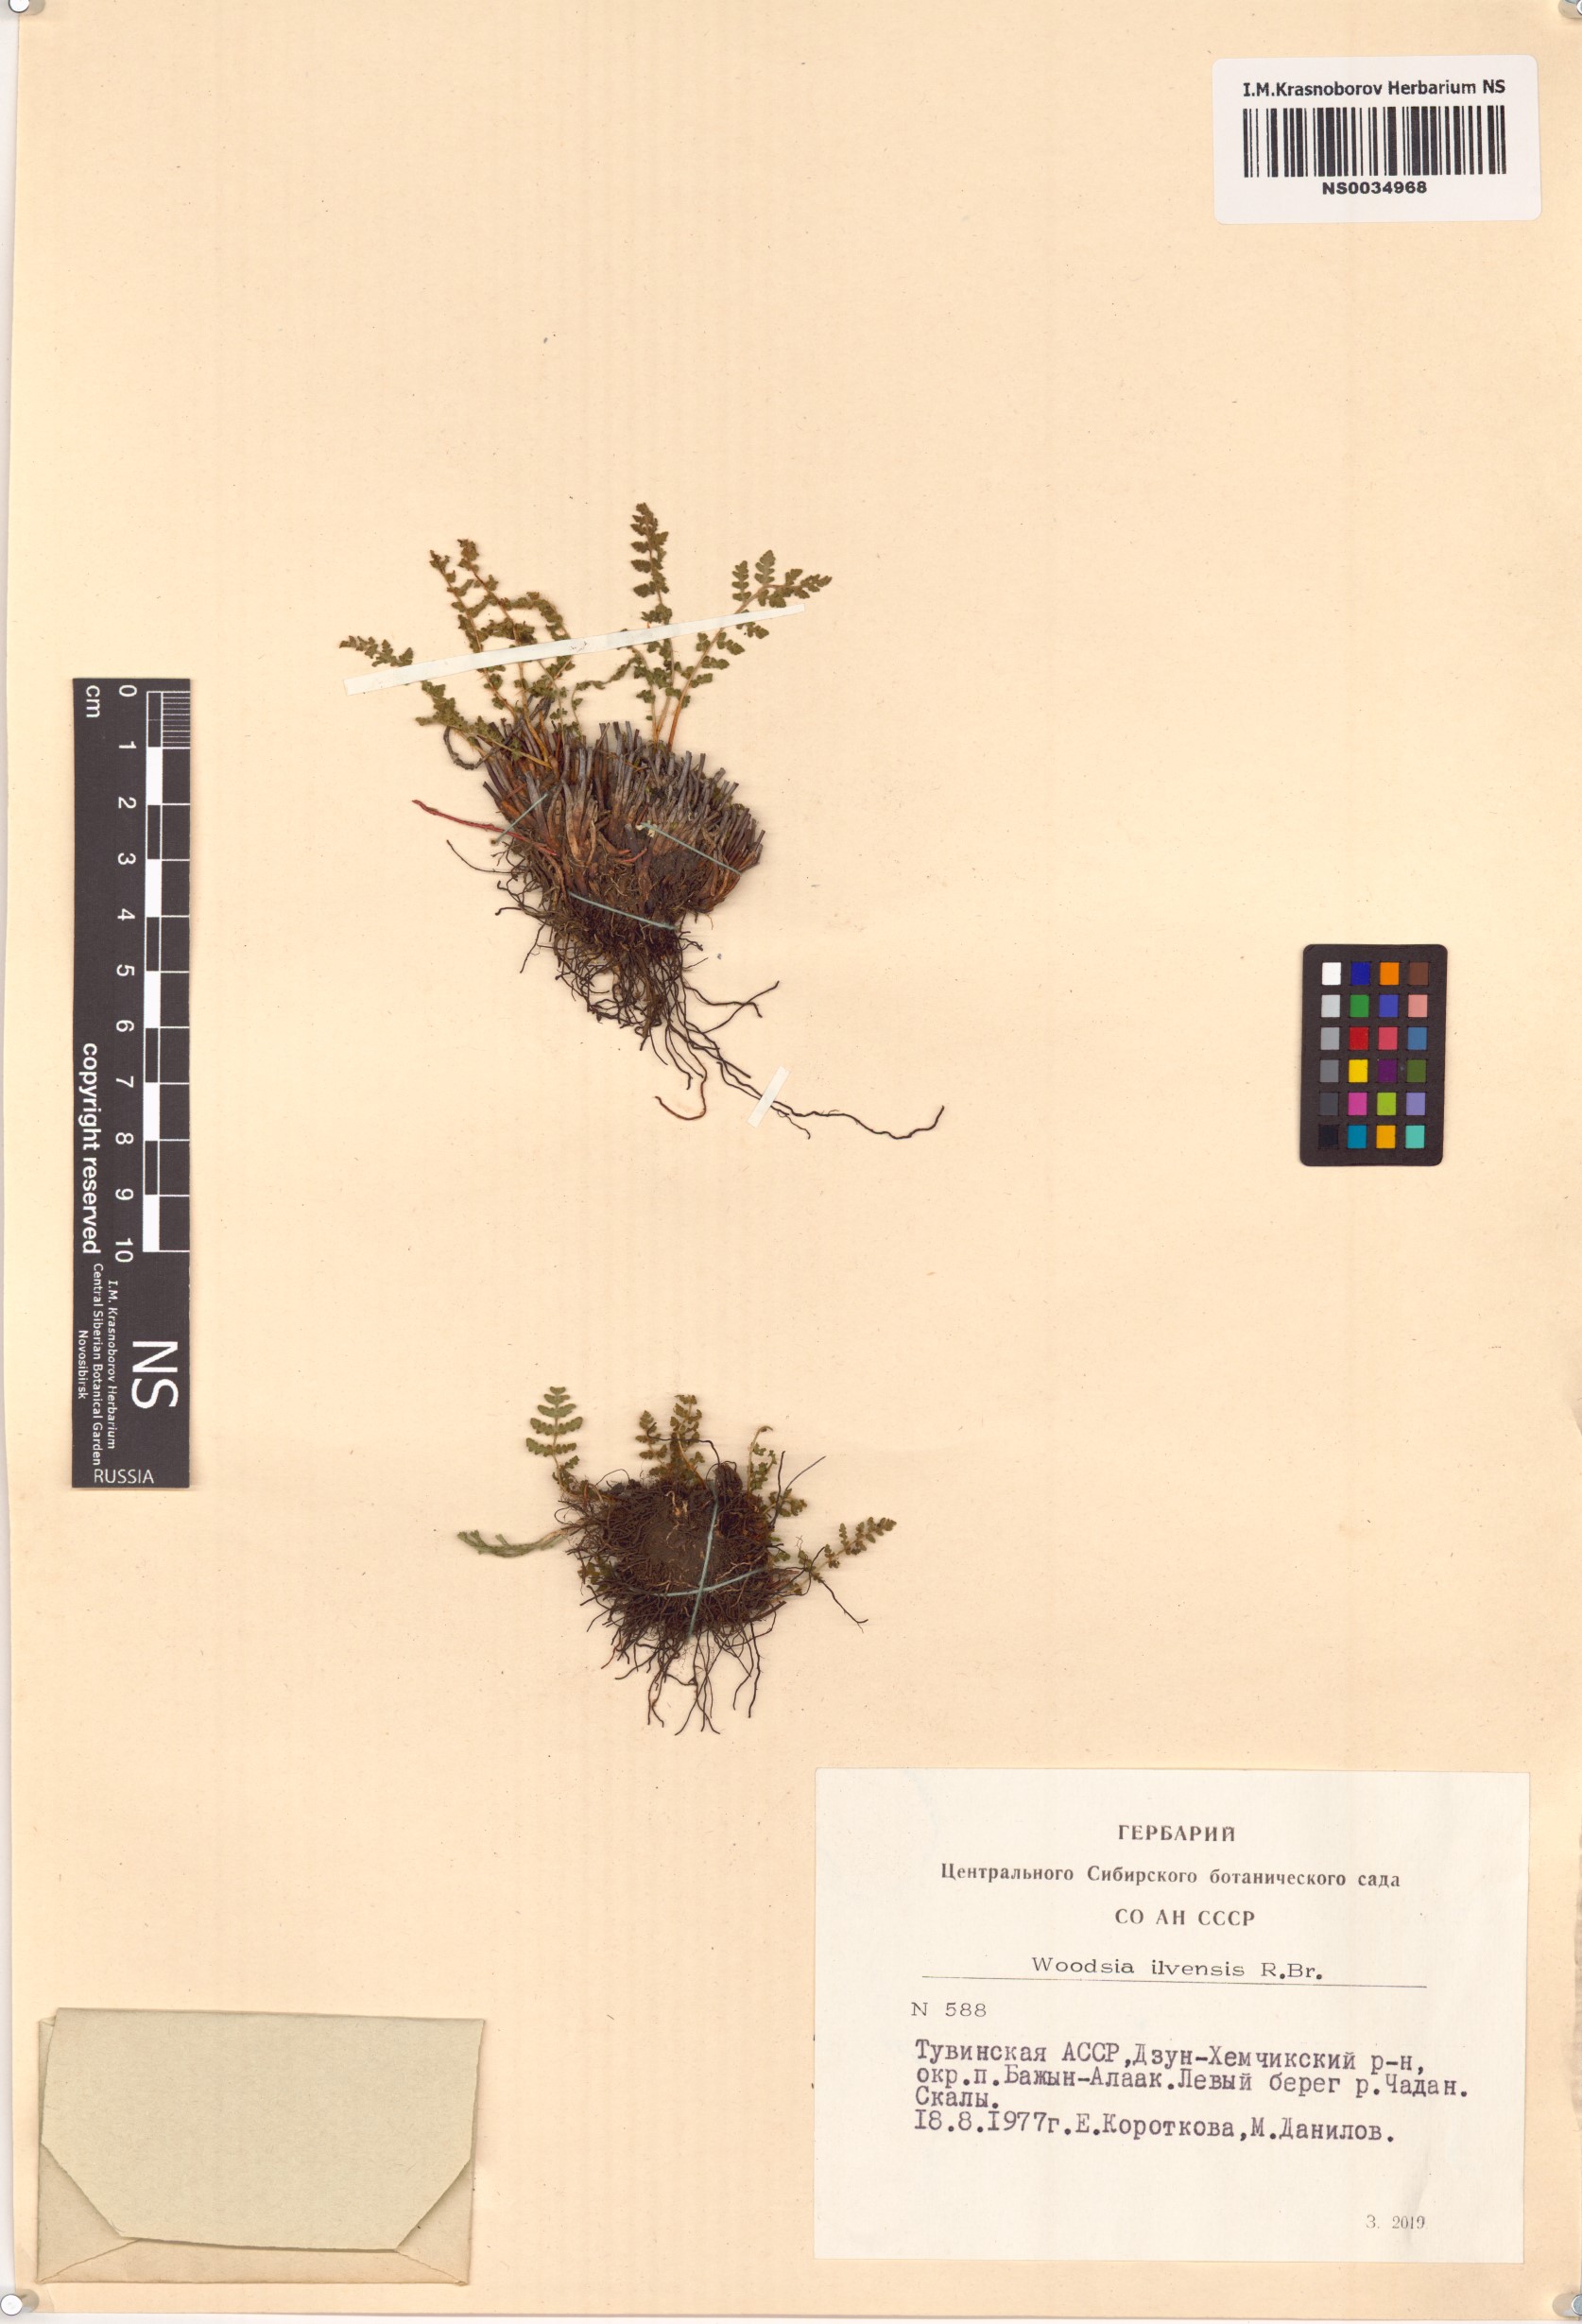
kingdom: Plantae
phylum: Tracheophyta
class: Polypodiopsida
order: Polypodiales
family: Woodsiaceae
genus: Woodsia
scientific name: Woodsia ilvensis
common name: Fragrant woodsia
